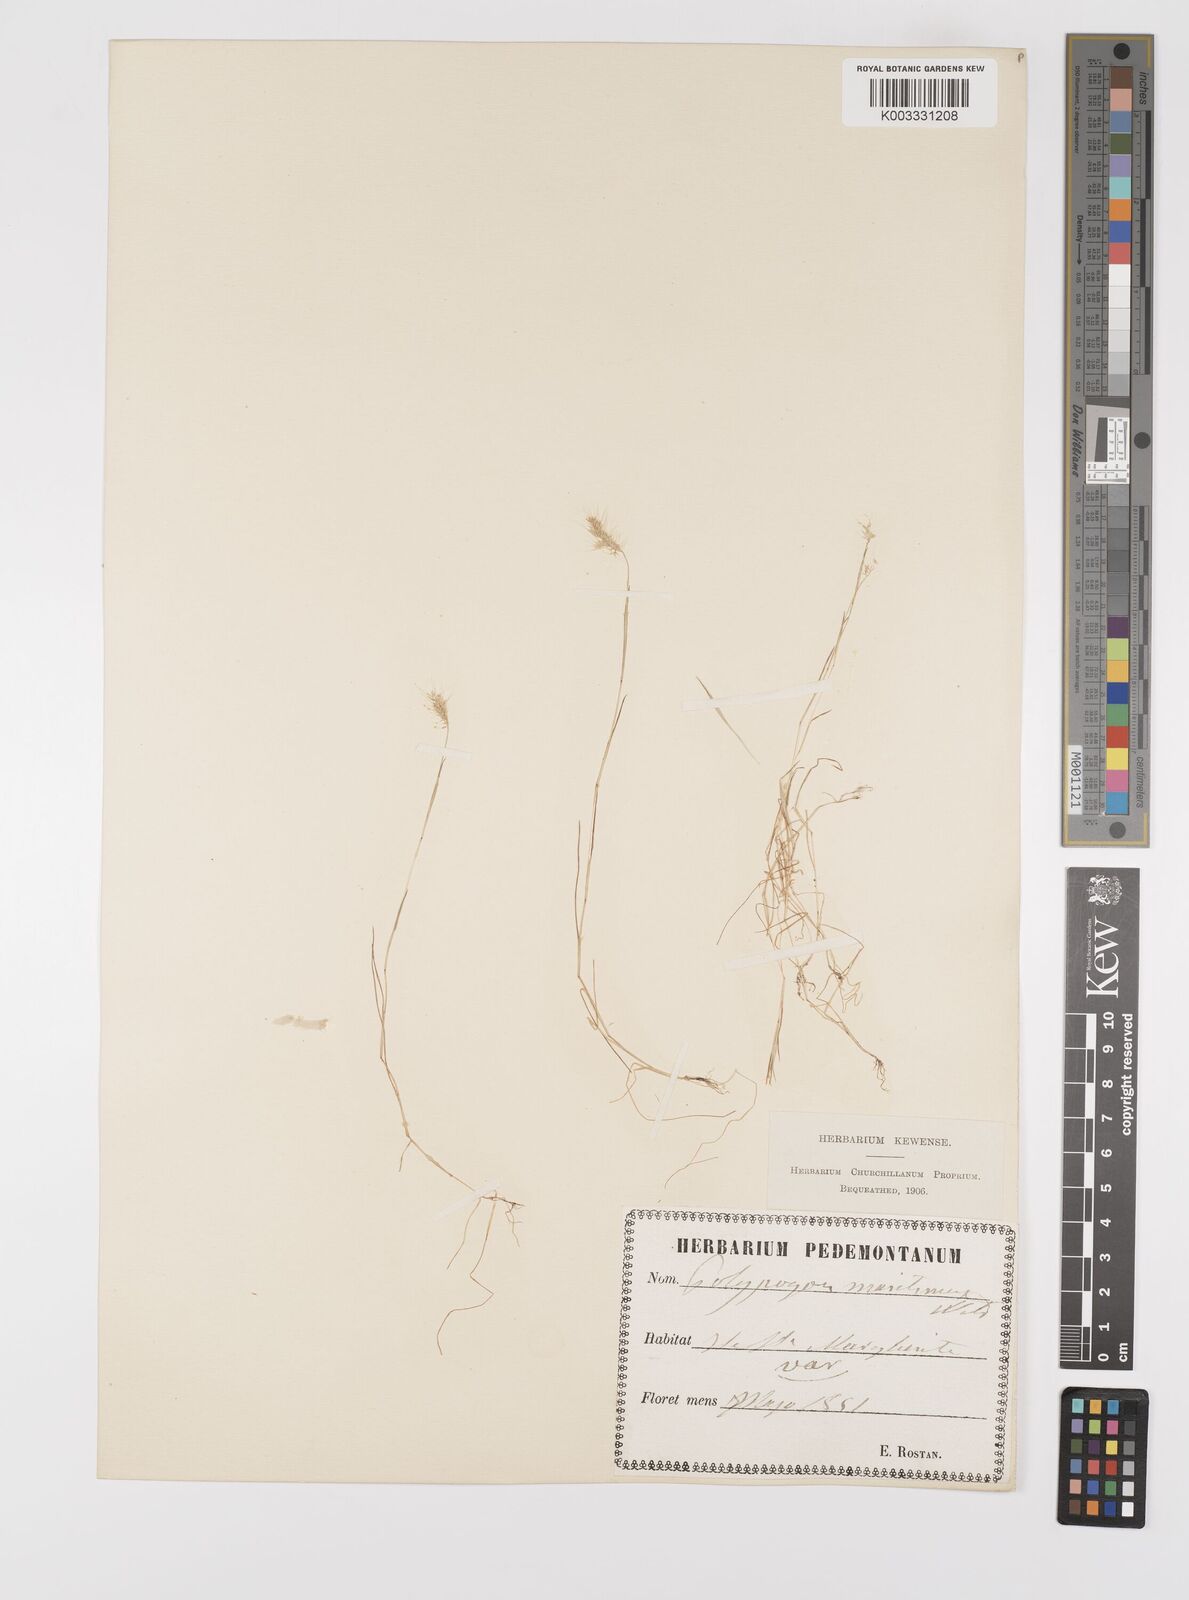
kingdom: Plantae
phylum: Tracheophyta
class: Liliopsida
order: Poales
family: Poaceae
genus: Polypogon
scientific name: Polypogon maritimus
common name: Mediterranean rabbitsfoot grass
